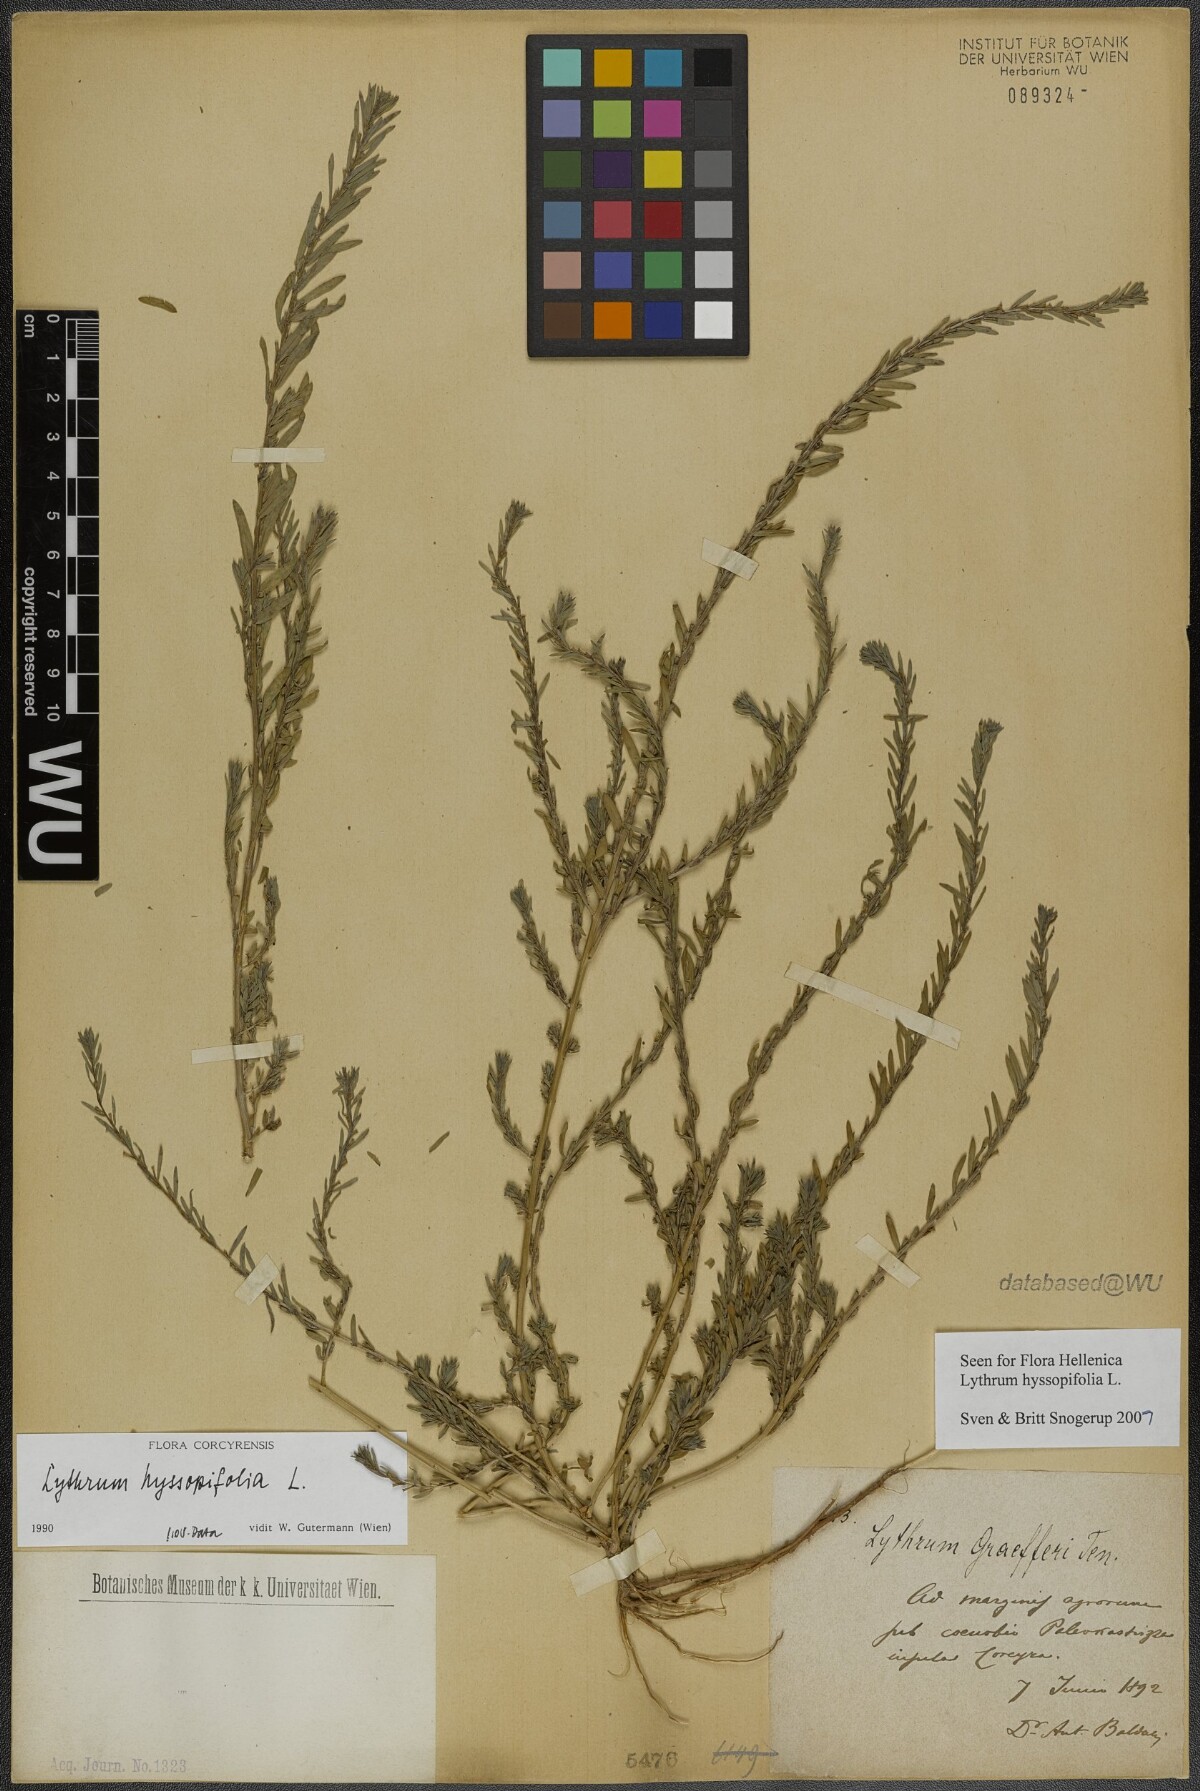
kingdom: Plantae
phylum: Tracheophyta
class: Magnoliopsida
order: Myrtales
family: Lythraceae
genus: Lythrum
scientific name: Lythrum hyssopifolia
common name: Grass-poly
